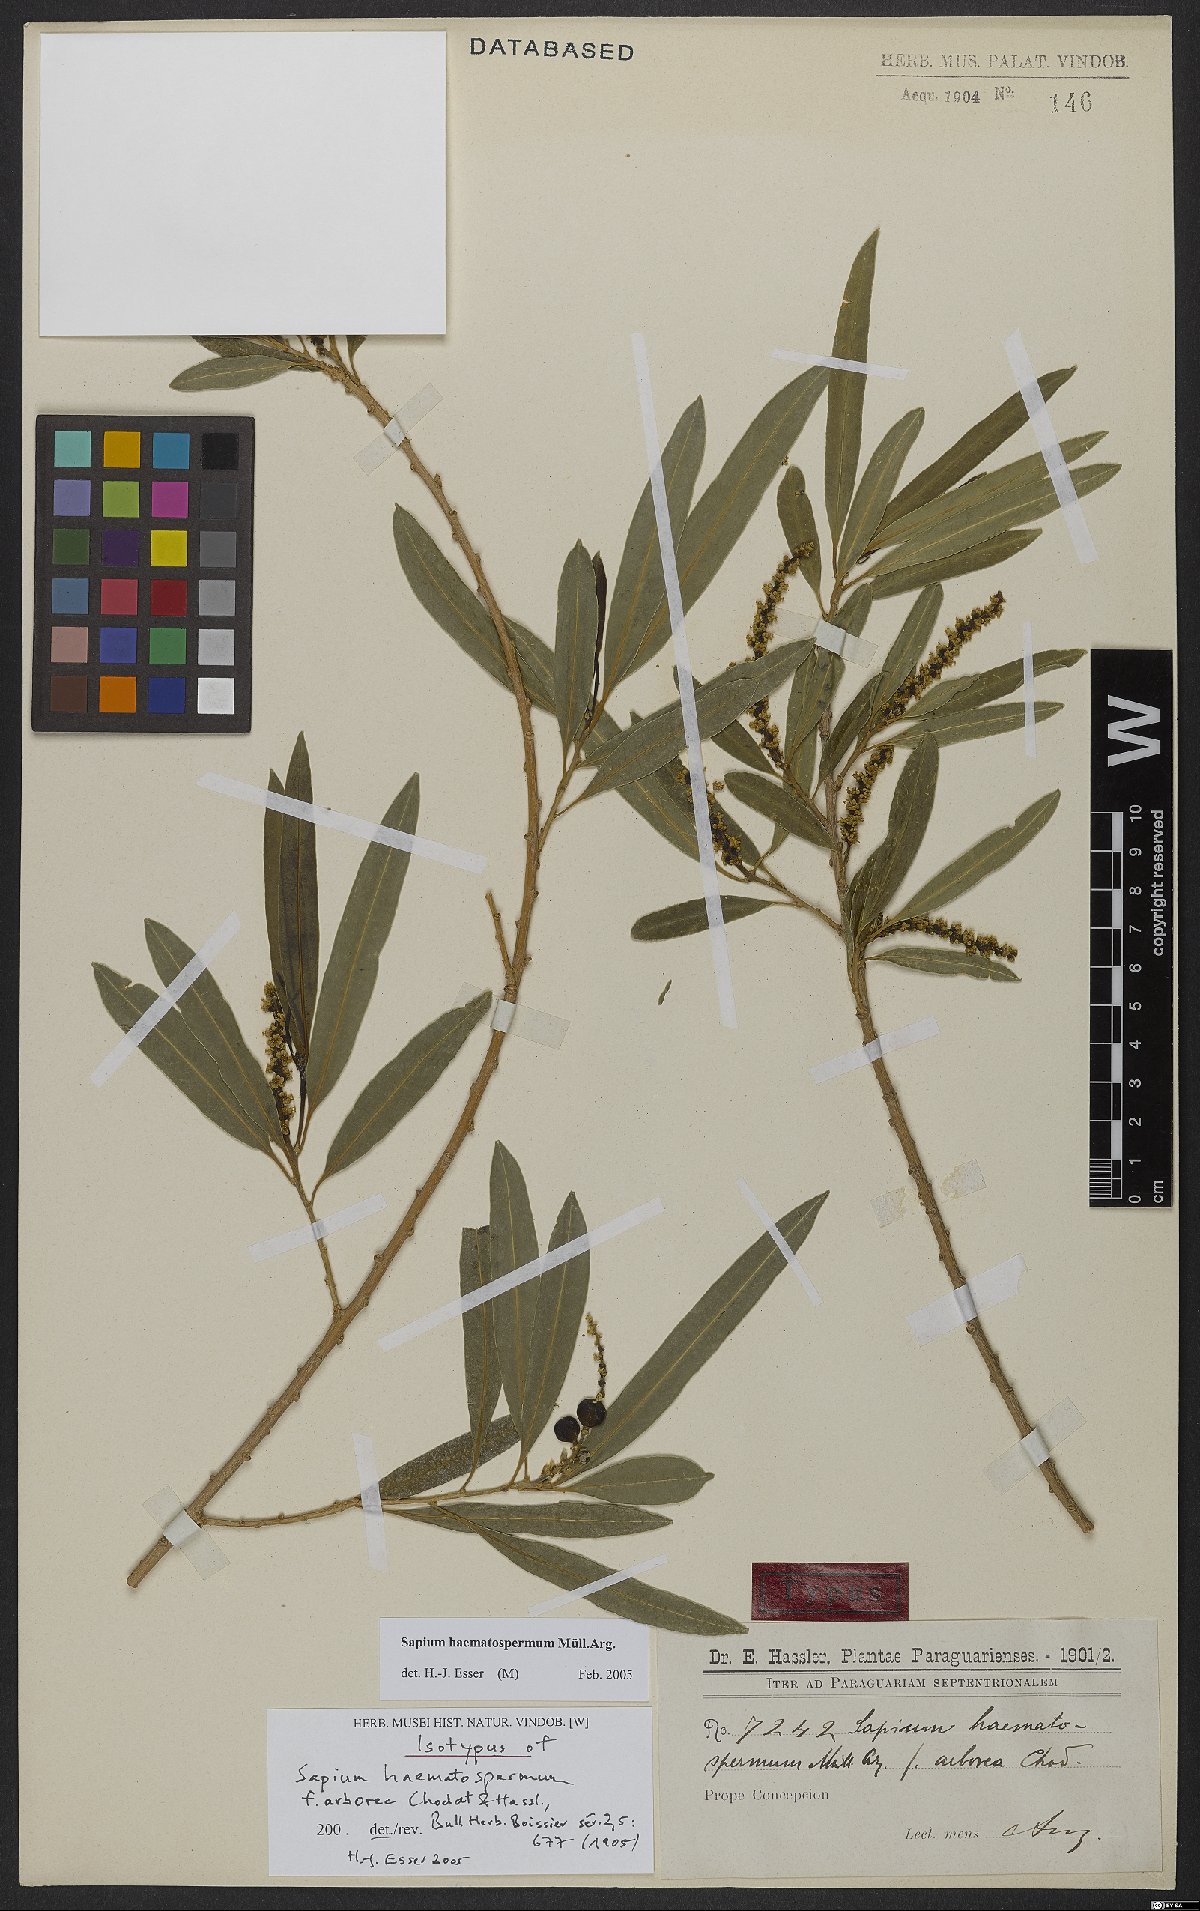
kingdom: Plantae
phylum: Tracheophyta
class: Magnoliopsida
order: Malpighiales
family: Euphorbiaceae
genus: Sapium
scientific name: Sapium haematospermum
